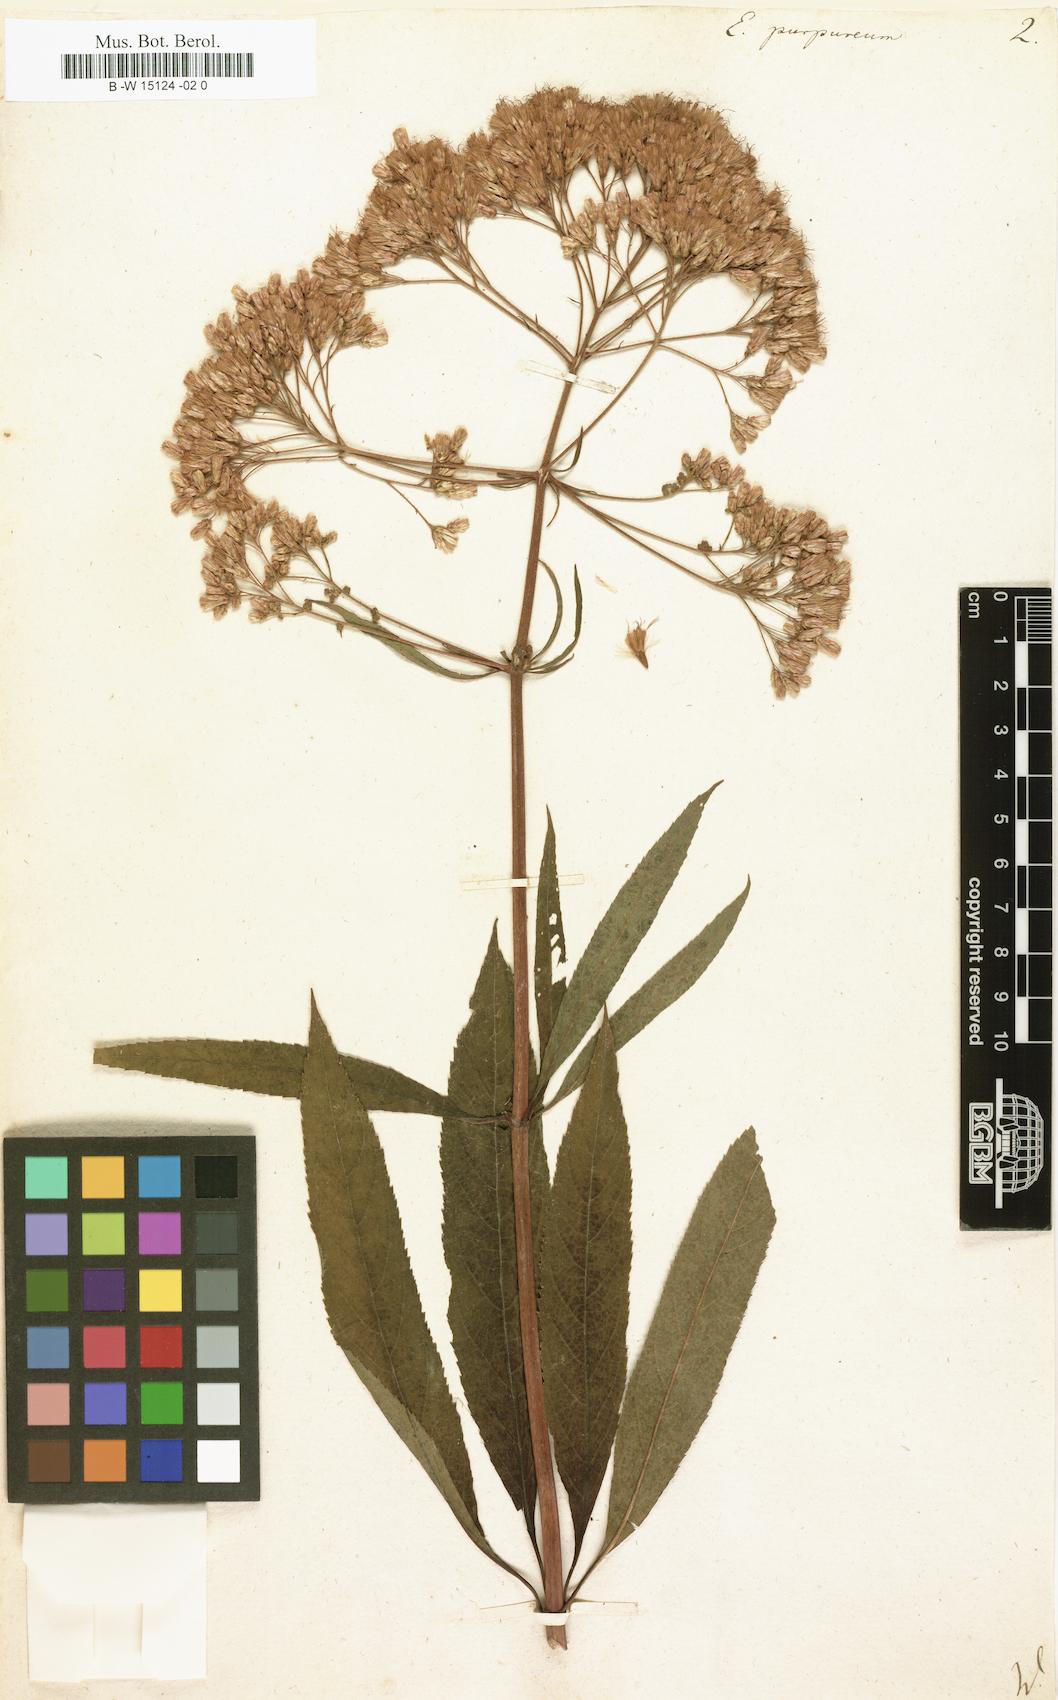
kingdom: Plantae
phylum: Tracheophyta
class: Magnoliopsida
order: Asterales
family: Asteraceae
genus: Eupatorium
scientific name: Eupatorium purpureum
